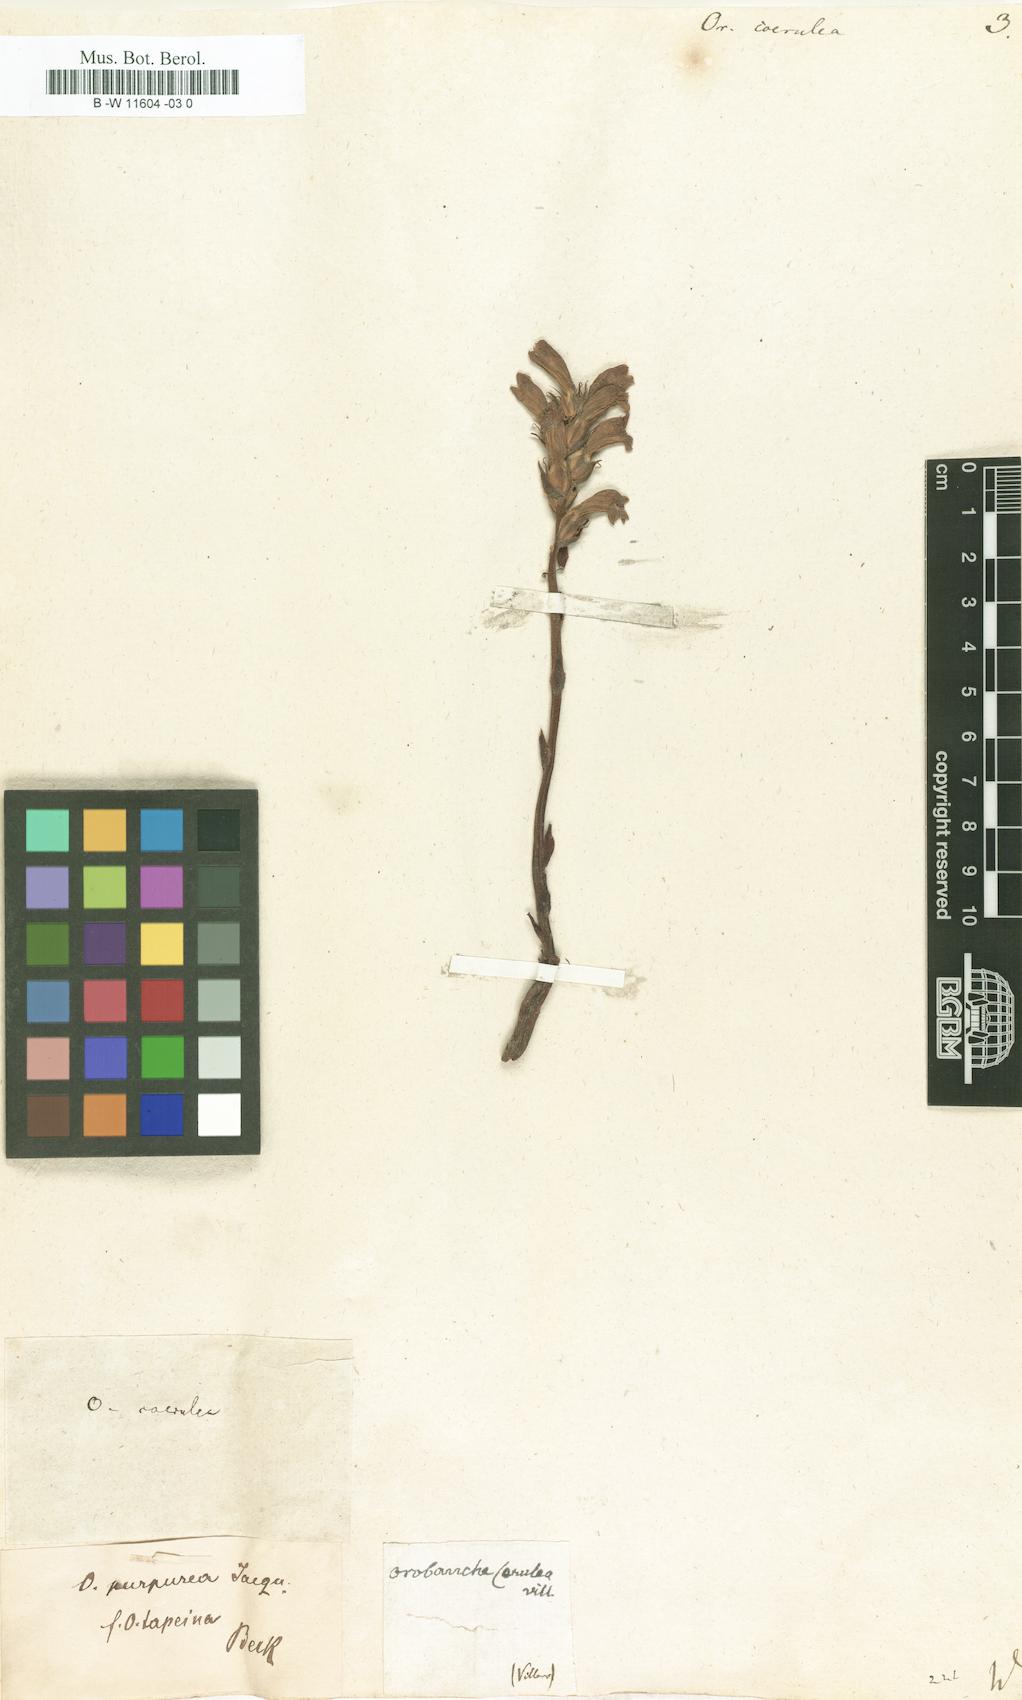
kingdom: Plantae
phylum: Tracheophyta
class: Magnoliopsida
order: Lamiales
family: Orobanchaceae
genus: Phelipanche
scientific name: Phelipanche purpurea
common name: Purple broomrape
